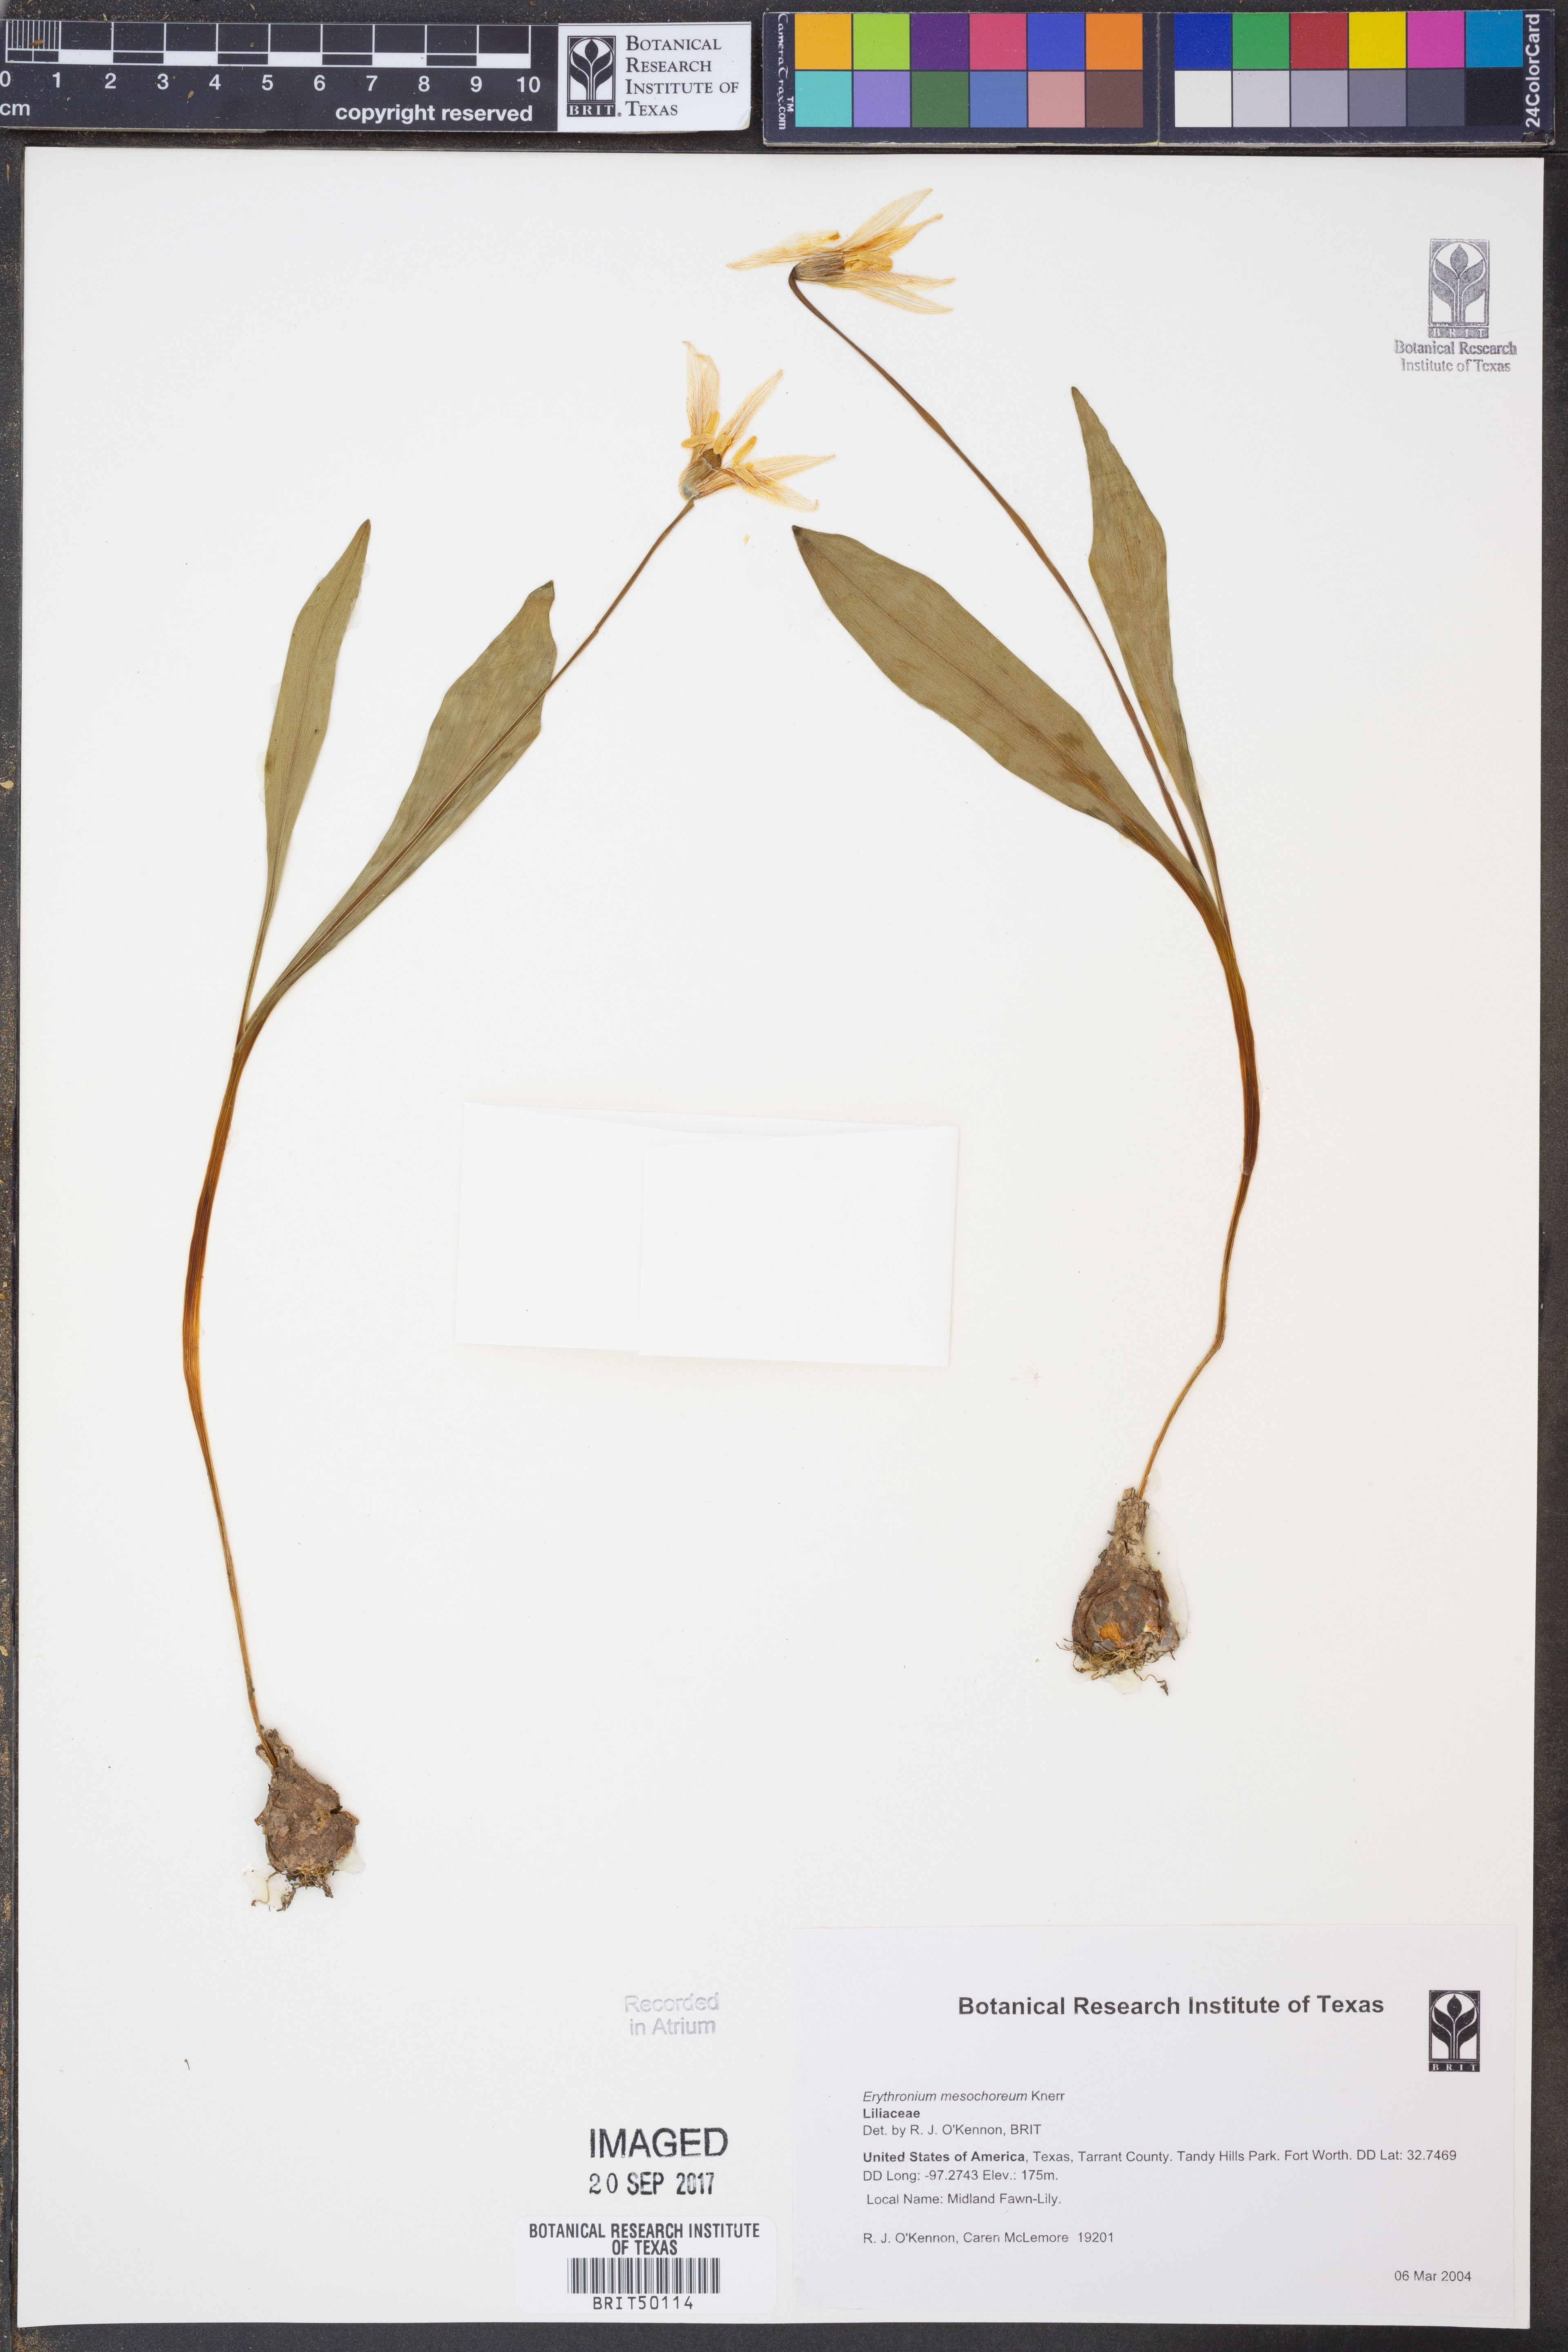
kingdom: Plantae
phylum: Tracheophyta
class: Liliopsida
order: Liliales
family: Liliaceae
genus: Erythronium
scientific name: Erythronium mesochoreum
